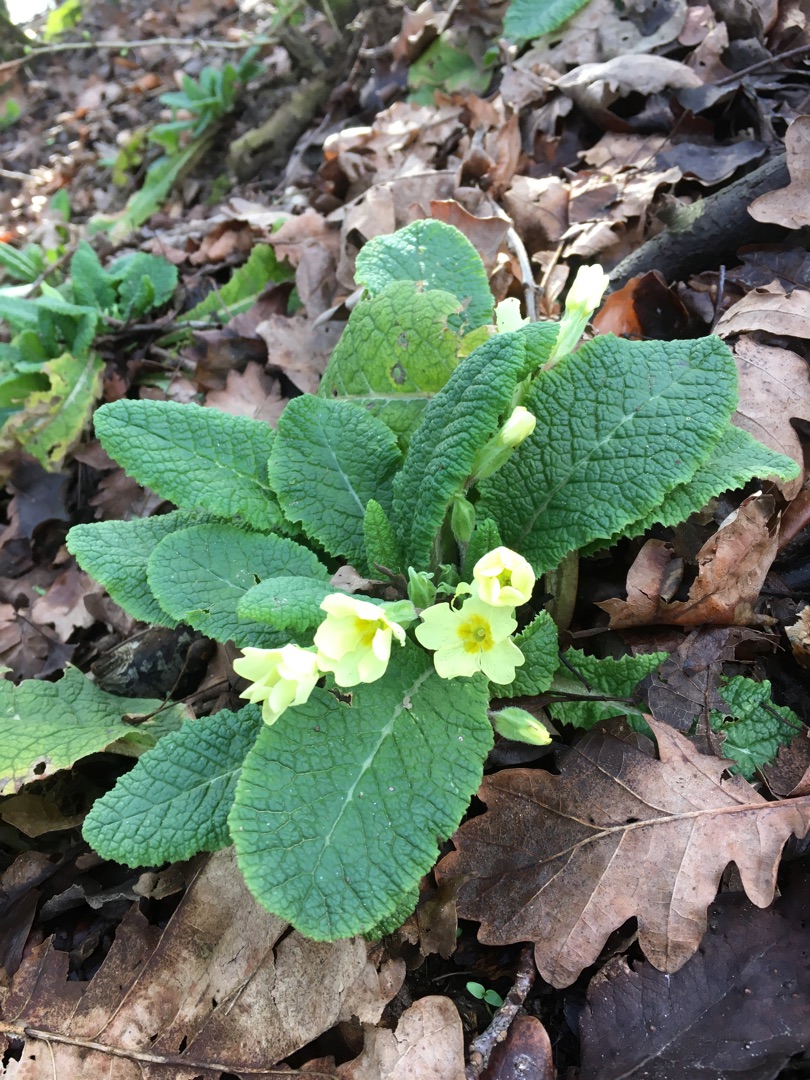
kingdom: Plantae
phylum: Tracheophyta
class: Magnoliopsida
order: Ericales
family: Primulaceae
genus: Primula
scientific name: Primula vulgaris
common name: Storblomstret kodriver
